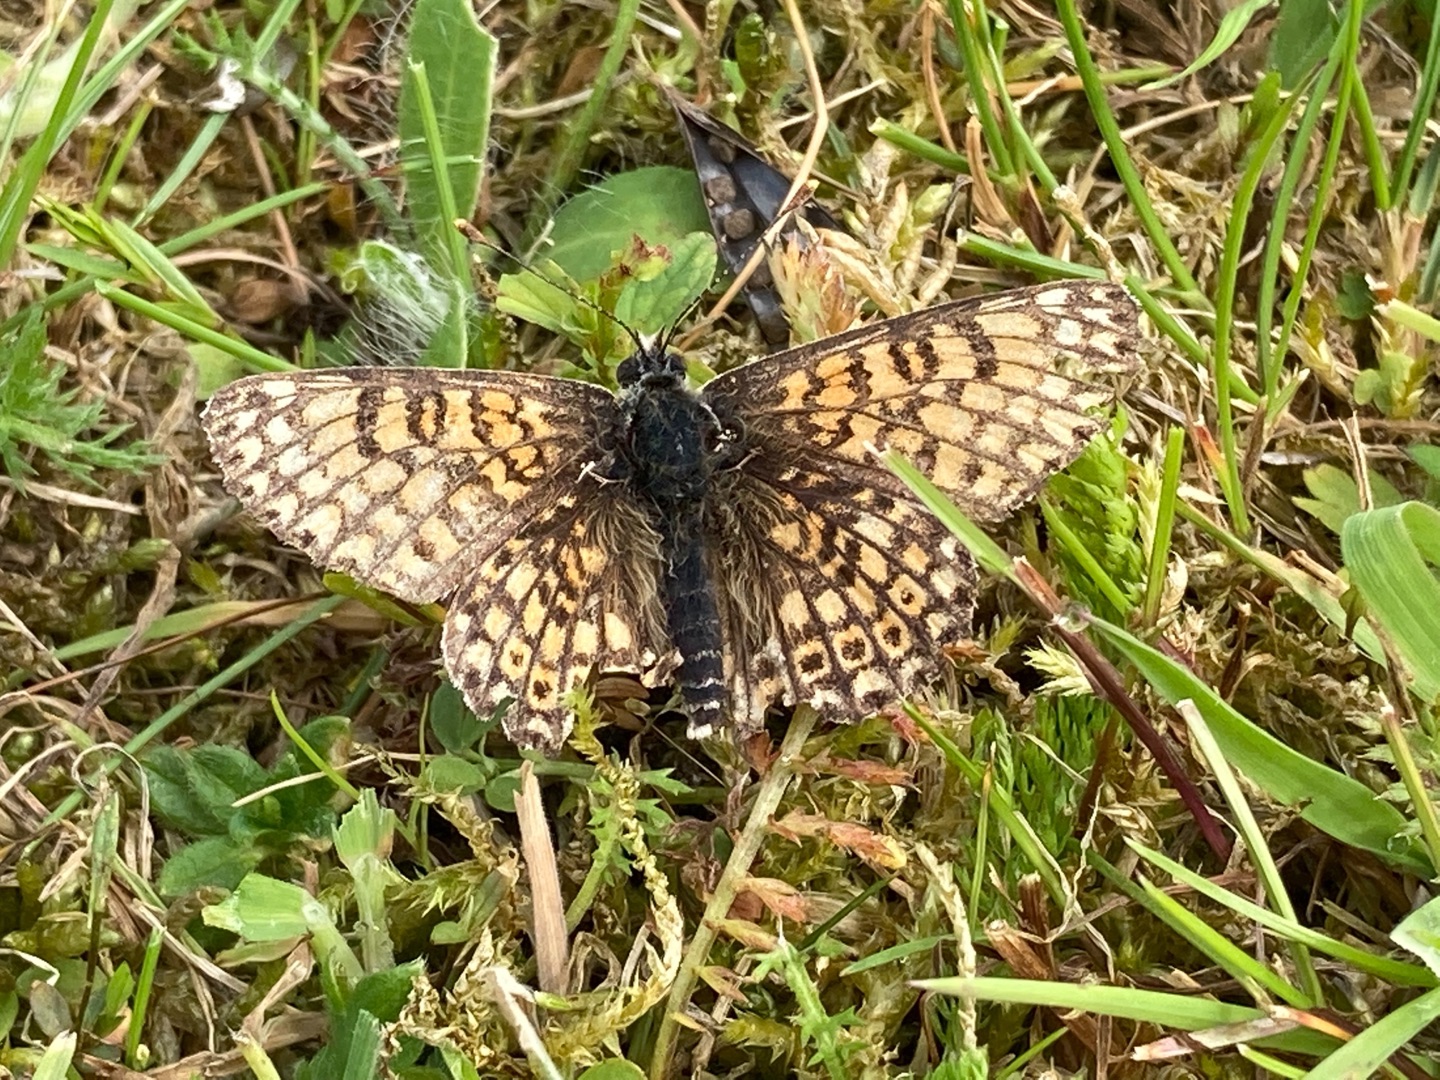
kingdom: Animalia
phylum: Arthropoda
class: Insecta
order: Lepidoptera
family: Nymphalidae
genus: Melitaea
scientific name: Melitaea cinxia
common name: Okkergul pletvinge
